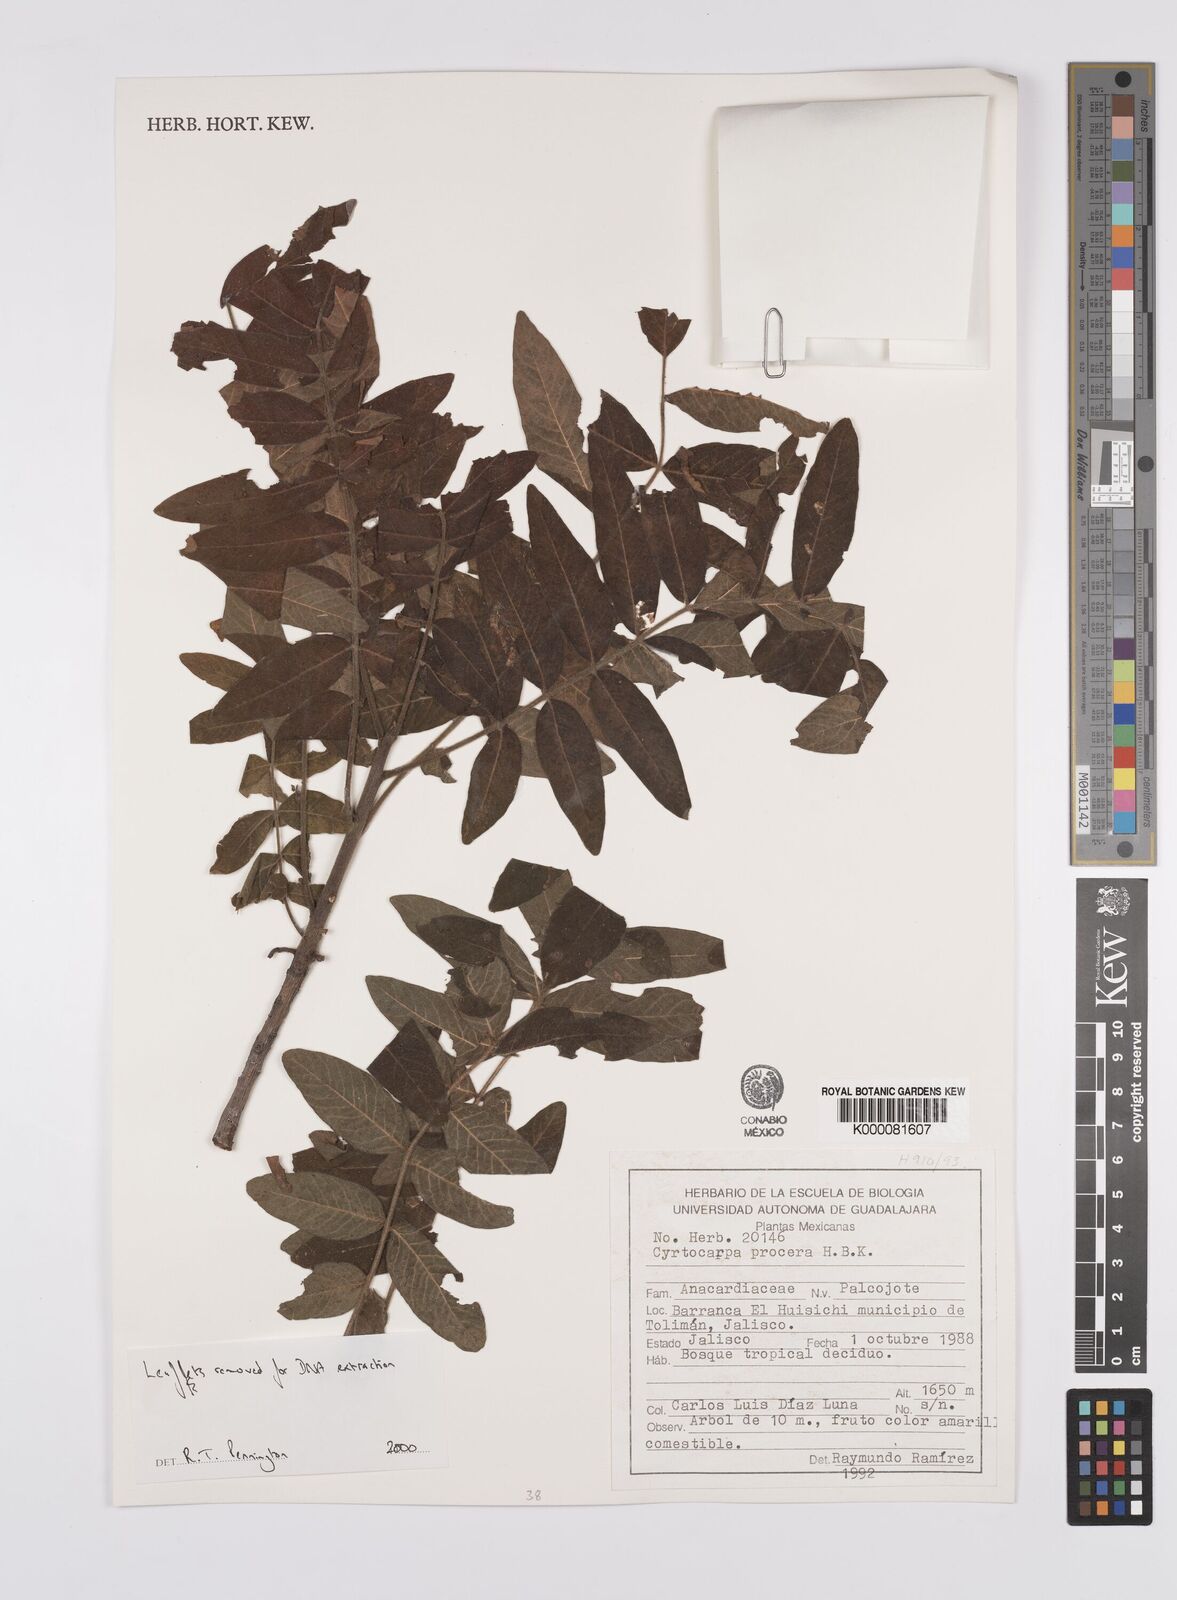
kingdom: Plantae
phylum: Tracheophyta
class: Magnoliopsida
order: Sapindales
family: Anacardiaceae
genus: Cyrtocarpa
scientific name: Cyrtocarpa procera
